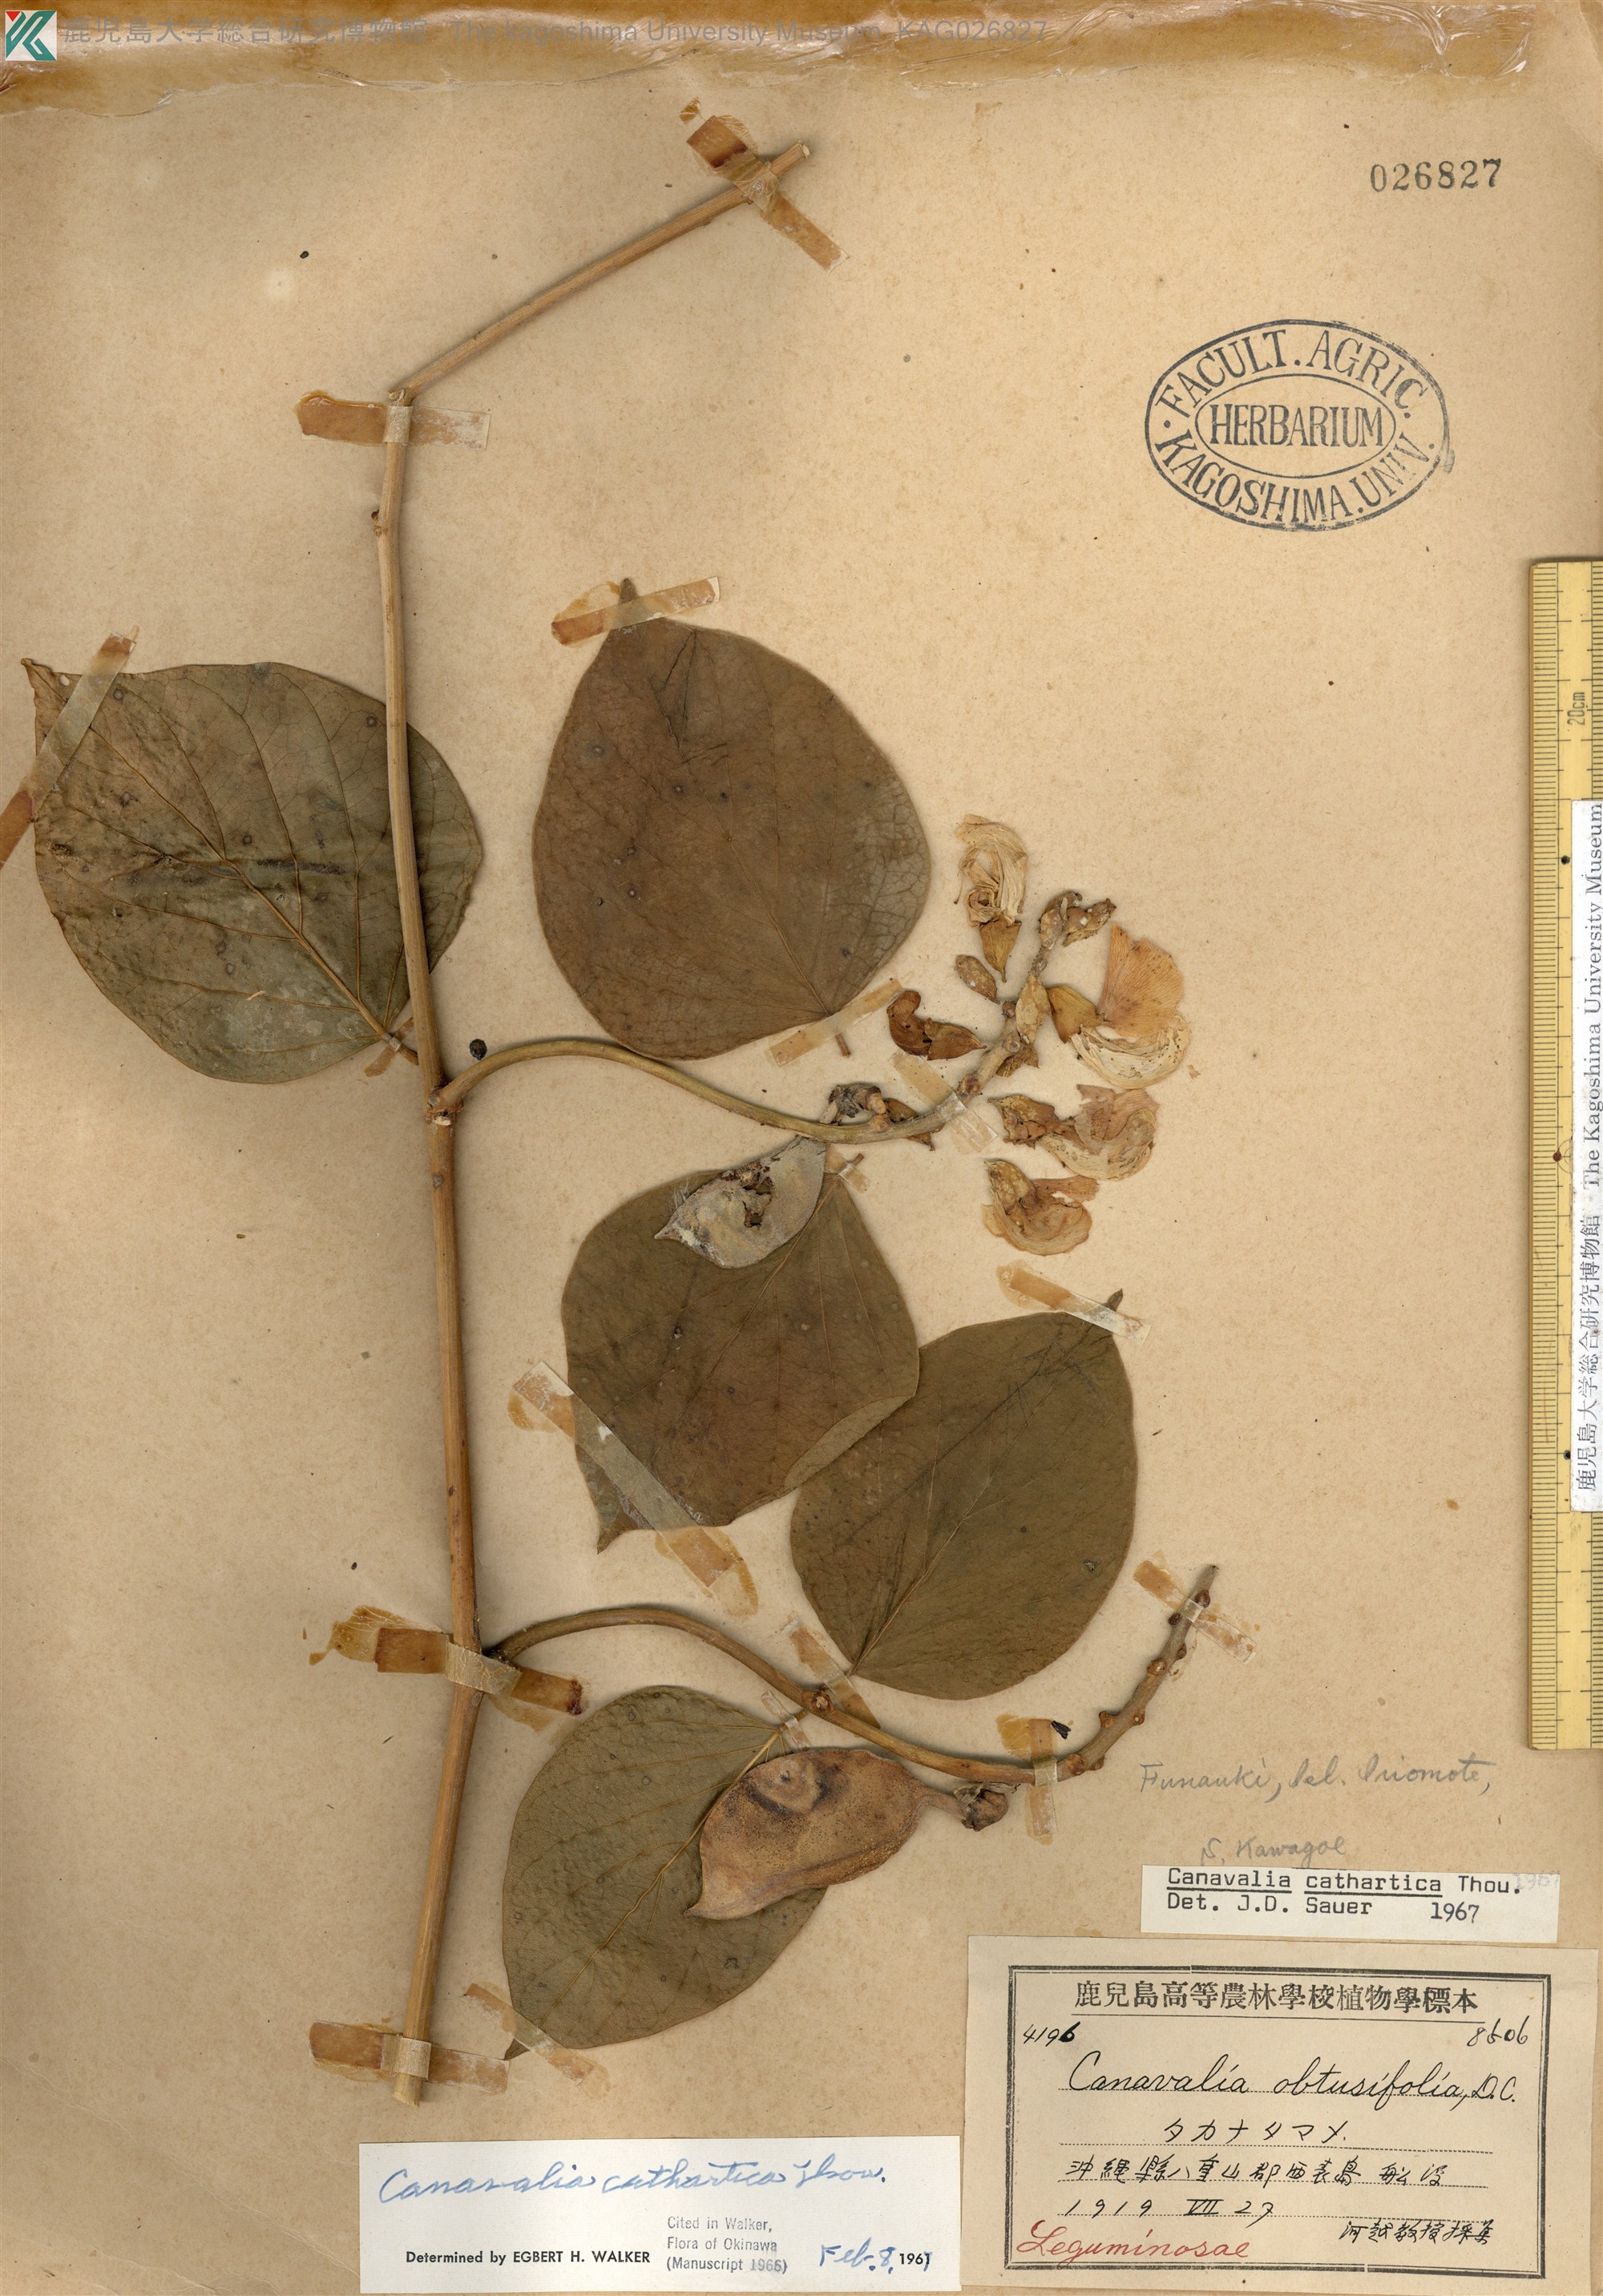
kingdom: Plantae
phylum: Tracheophyta
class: Magnoliopsida
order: Fabales
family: Fabaceae
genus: Canavalia
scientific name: Canavalia cathartica
